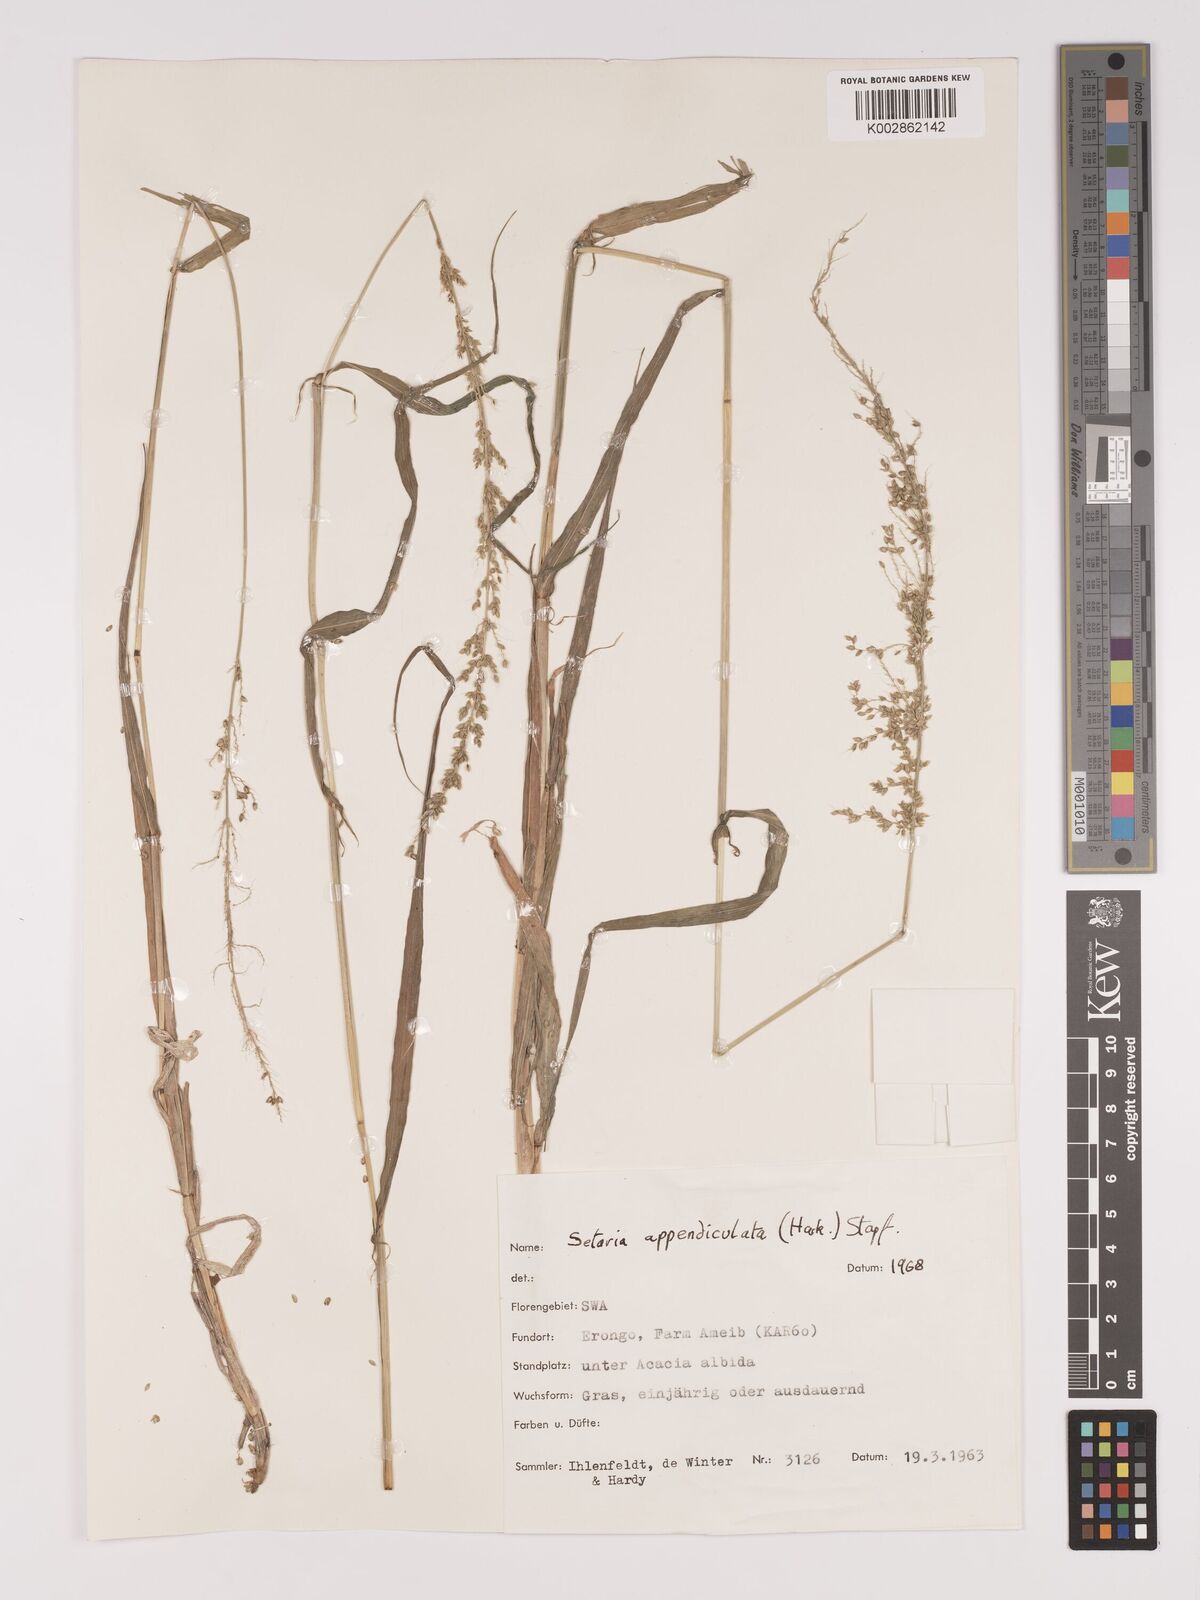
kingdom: Plantae
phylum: Tracheophyta
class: Liliopsida
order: Poales
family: Poaceae
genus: Setaria
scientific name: Setaria appendiculata
